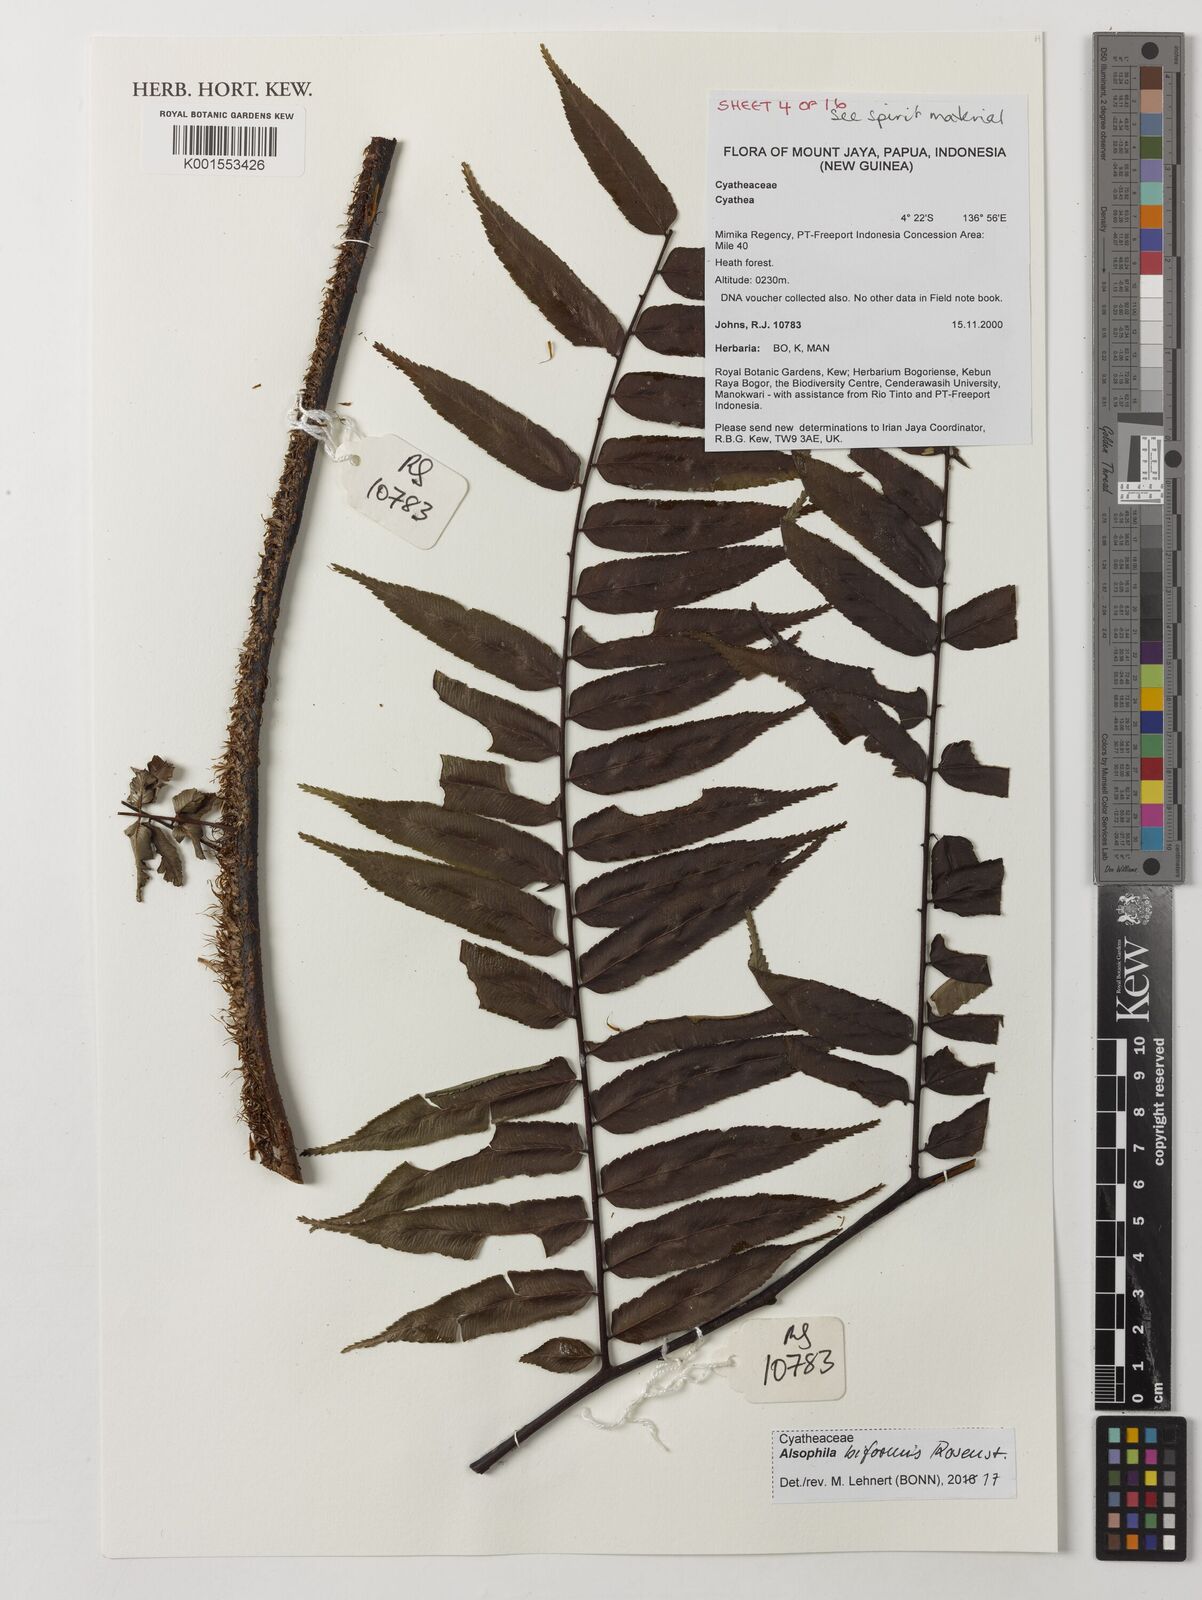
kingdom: Plantae
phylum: Tracheophyta
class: Polypodiopsida
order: Cyatheales
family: Cyatheaceae
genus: Gymnosphaera
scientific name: Gymnosphaera biformis
